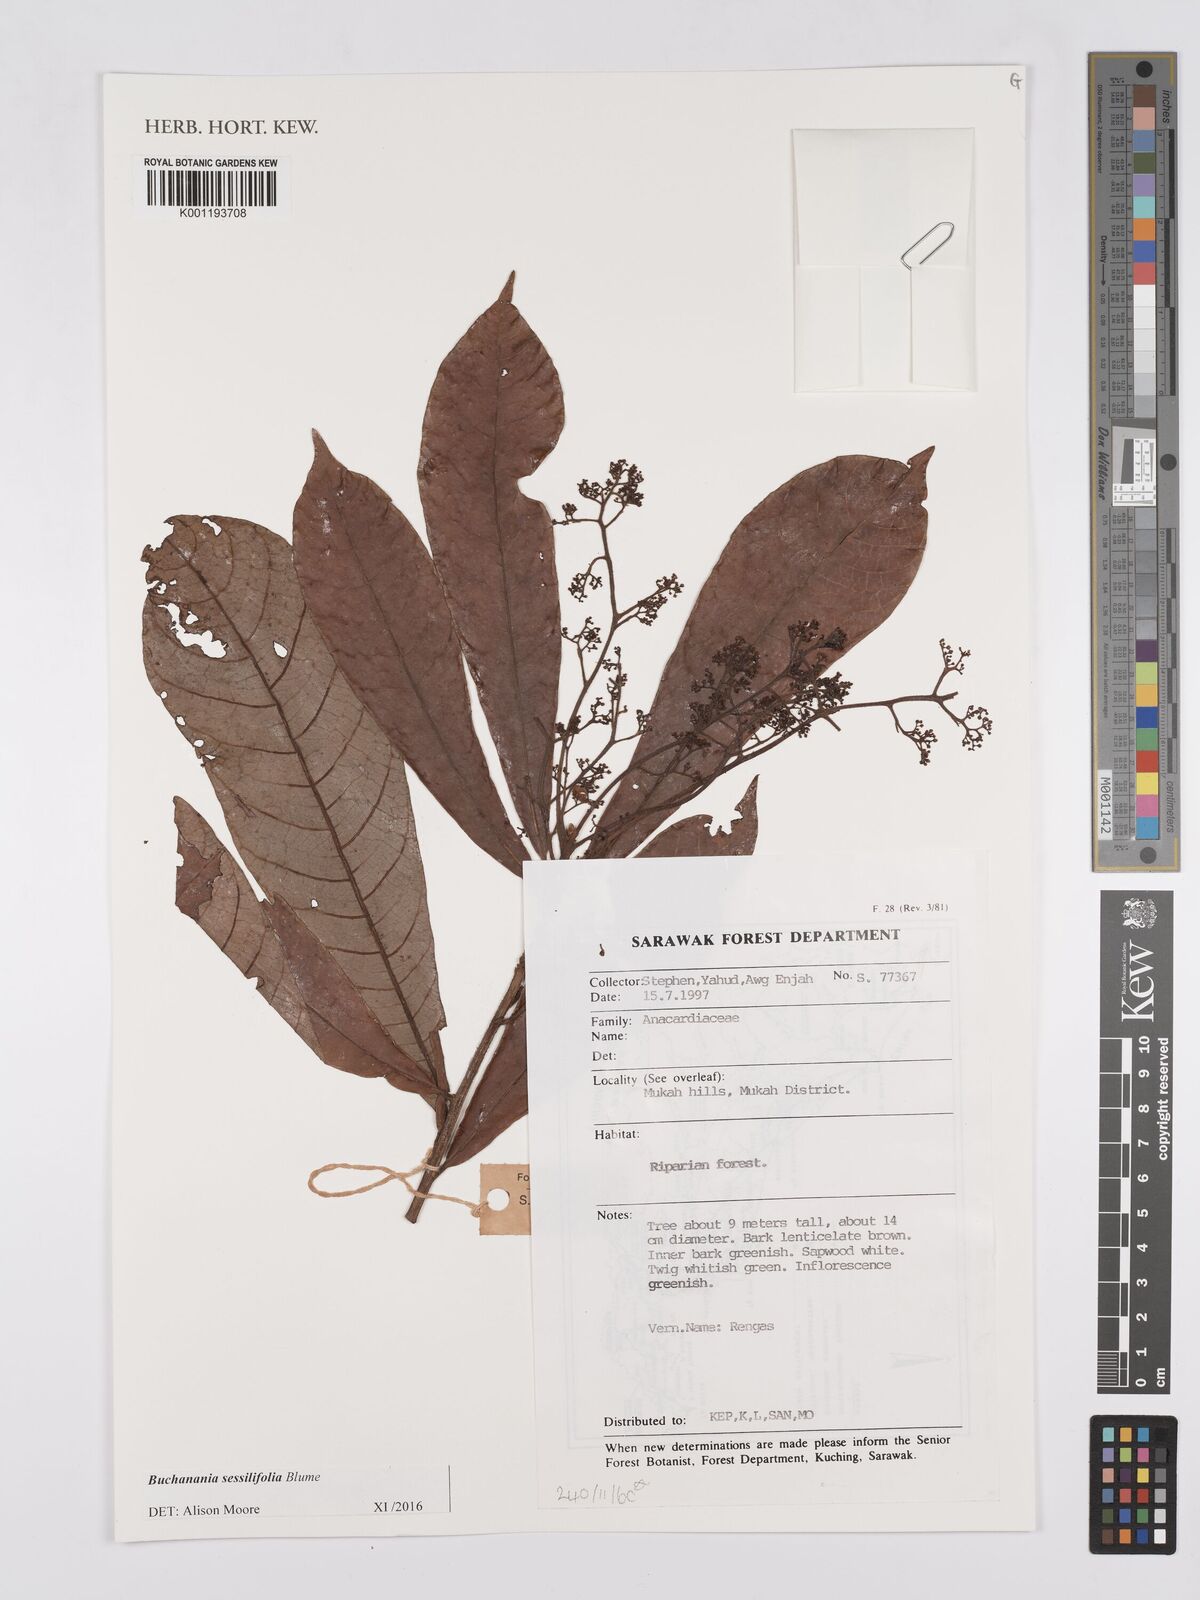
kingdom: Plantae
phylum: Tracheophyta
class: Magnoliopsida
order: Sapindales
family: Anacardiaceae
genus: Buchanania
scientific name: Buchanania sessifolia
